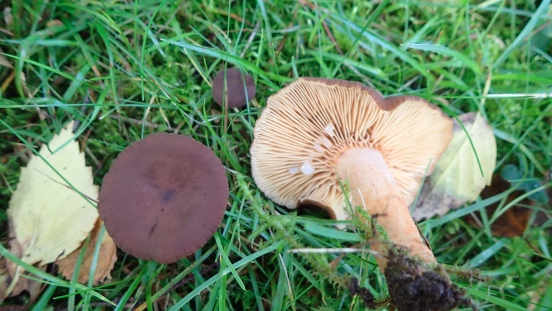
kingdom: Fungi
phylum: Basidiomycota
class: Agaricomycetes
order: Russulales
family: Russulaceae
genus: Lactarius
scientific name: Lactarius serifluus
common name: tæge-mælkehat
